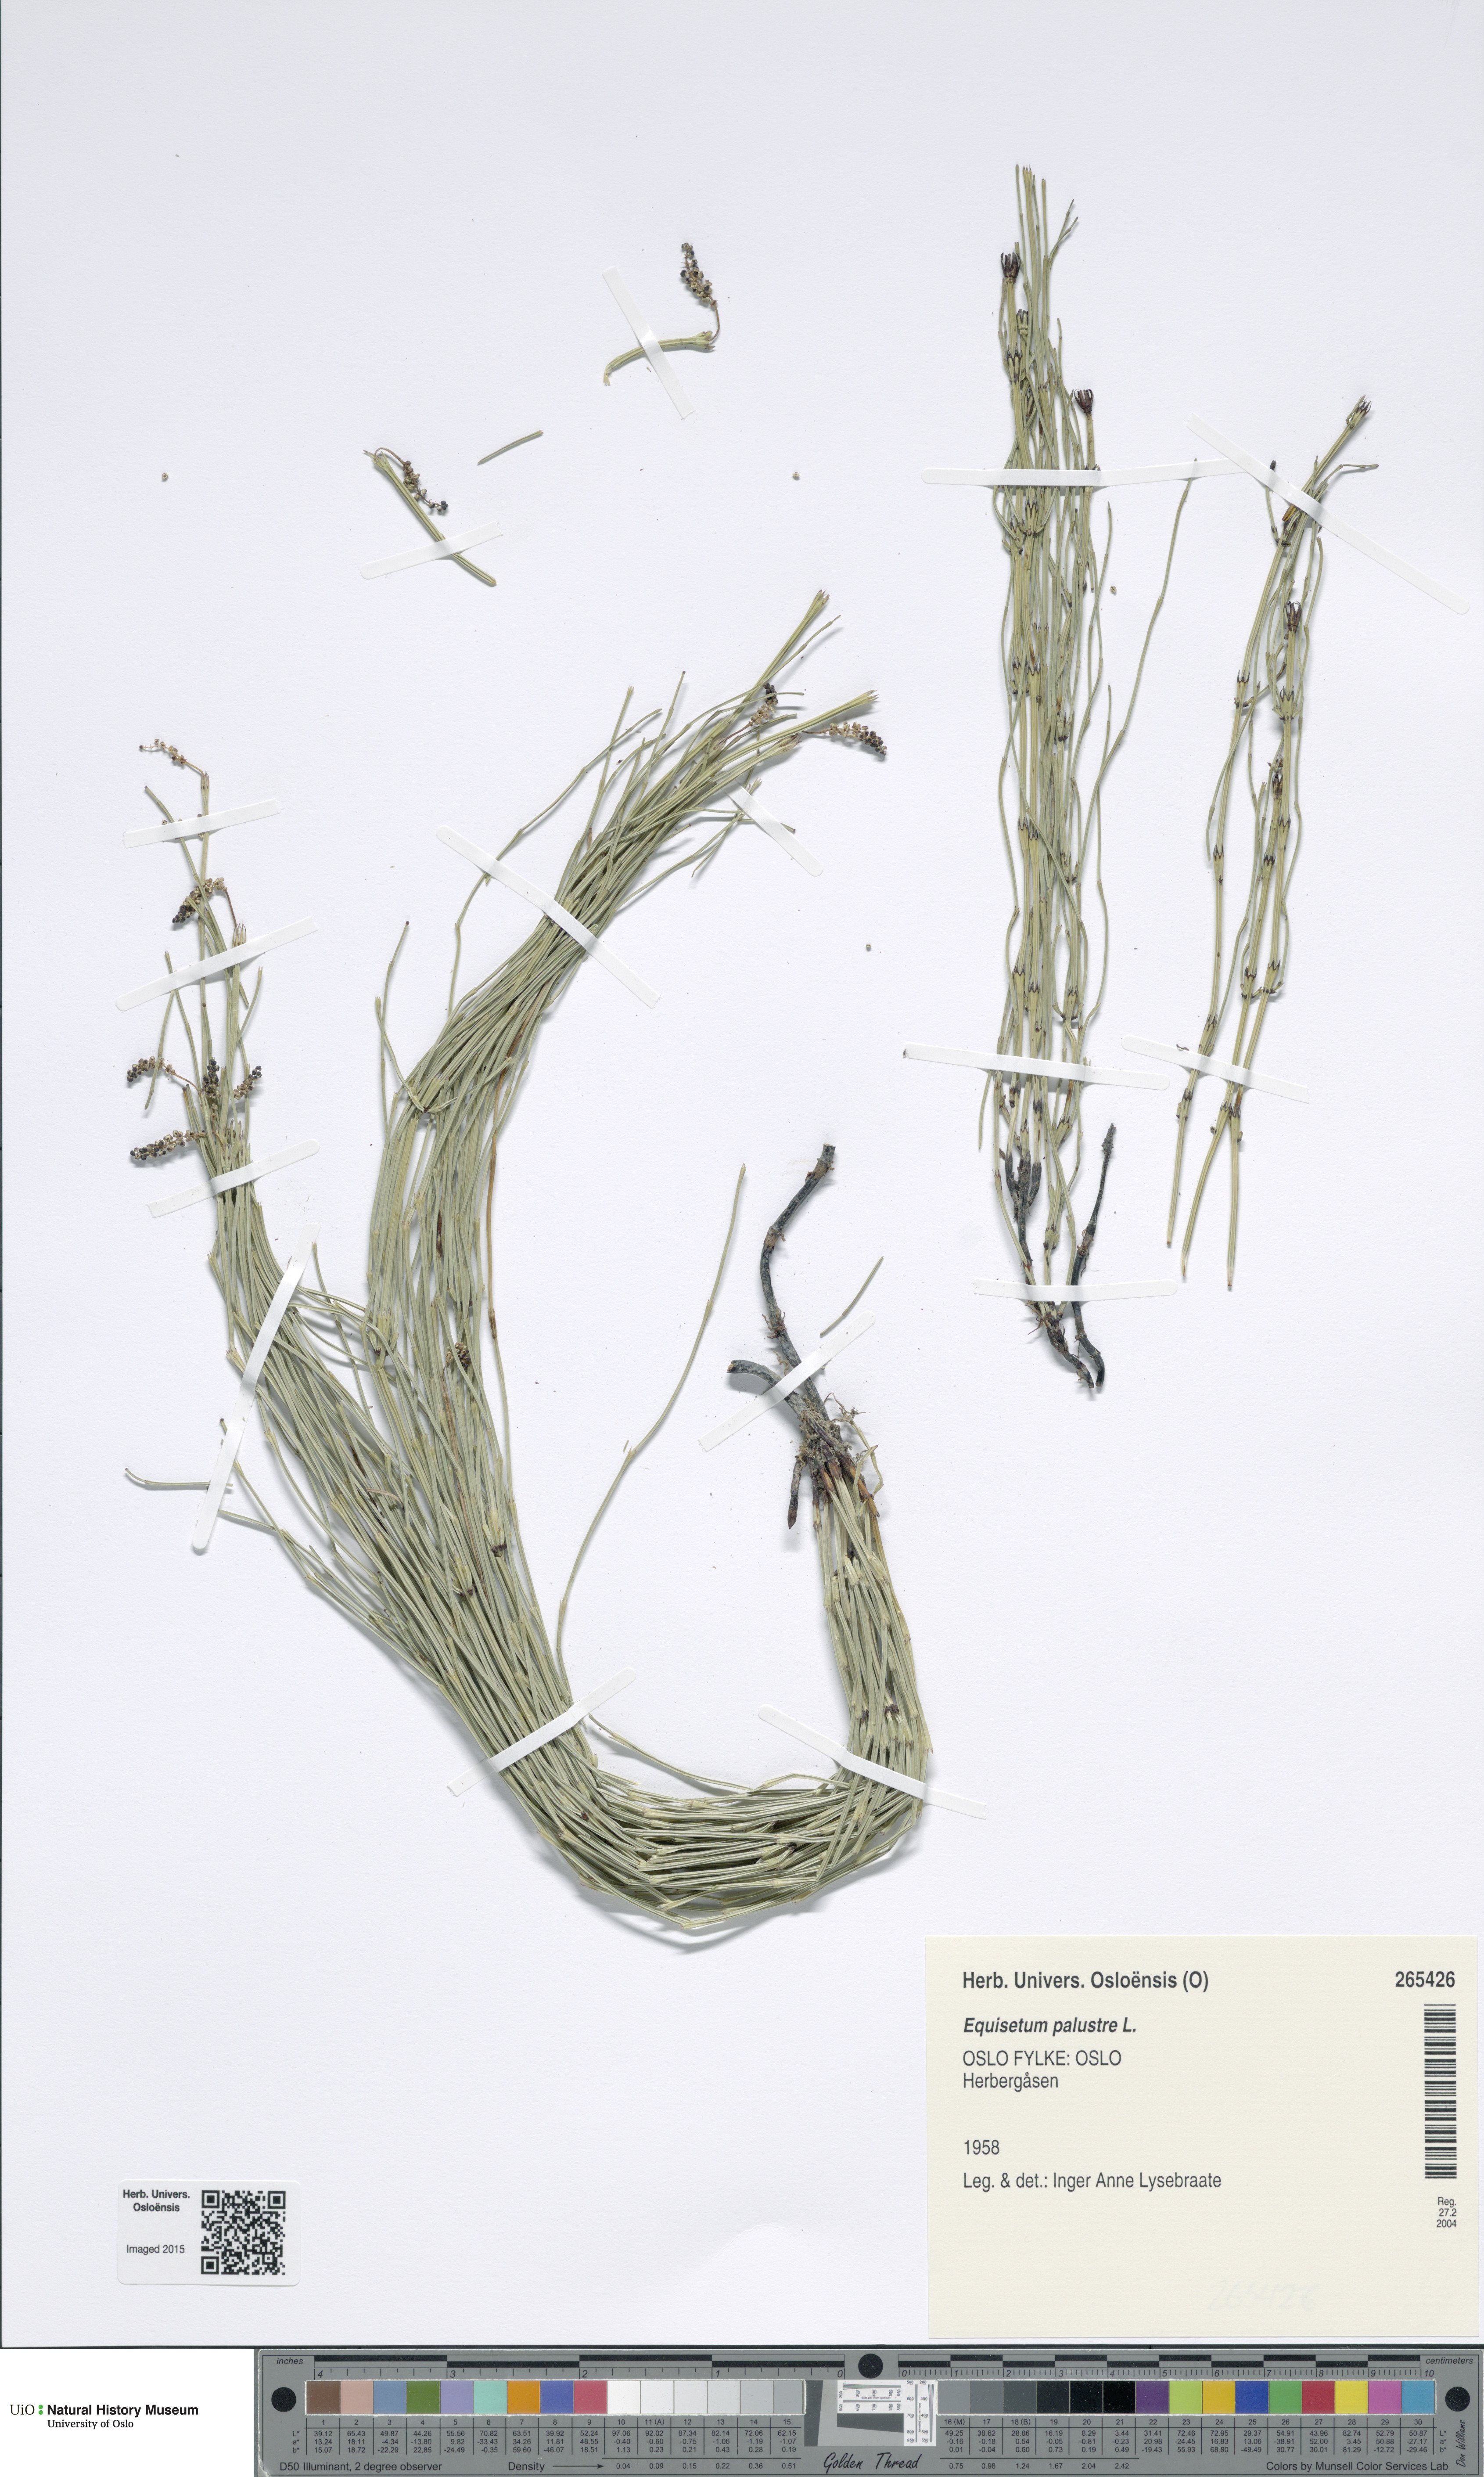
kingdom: Plantae
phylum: Tracheophyta
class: Polypodiopsida
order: Equisetales
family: Equisetaceae
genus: Equisetum
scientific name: Equisetum palustre
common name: Marsh horsetail
